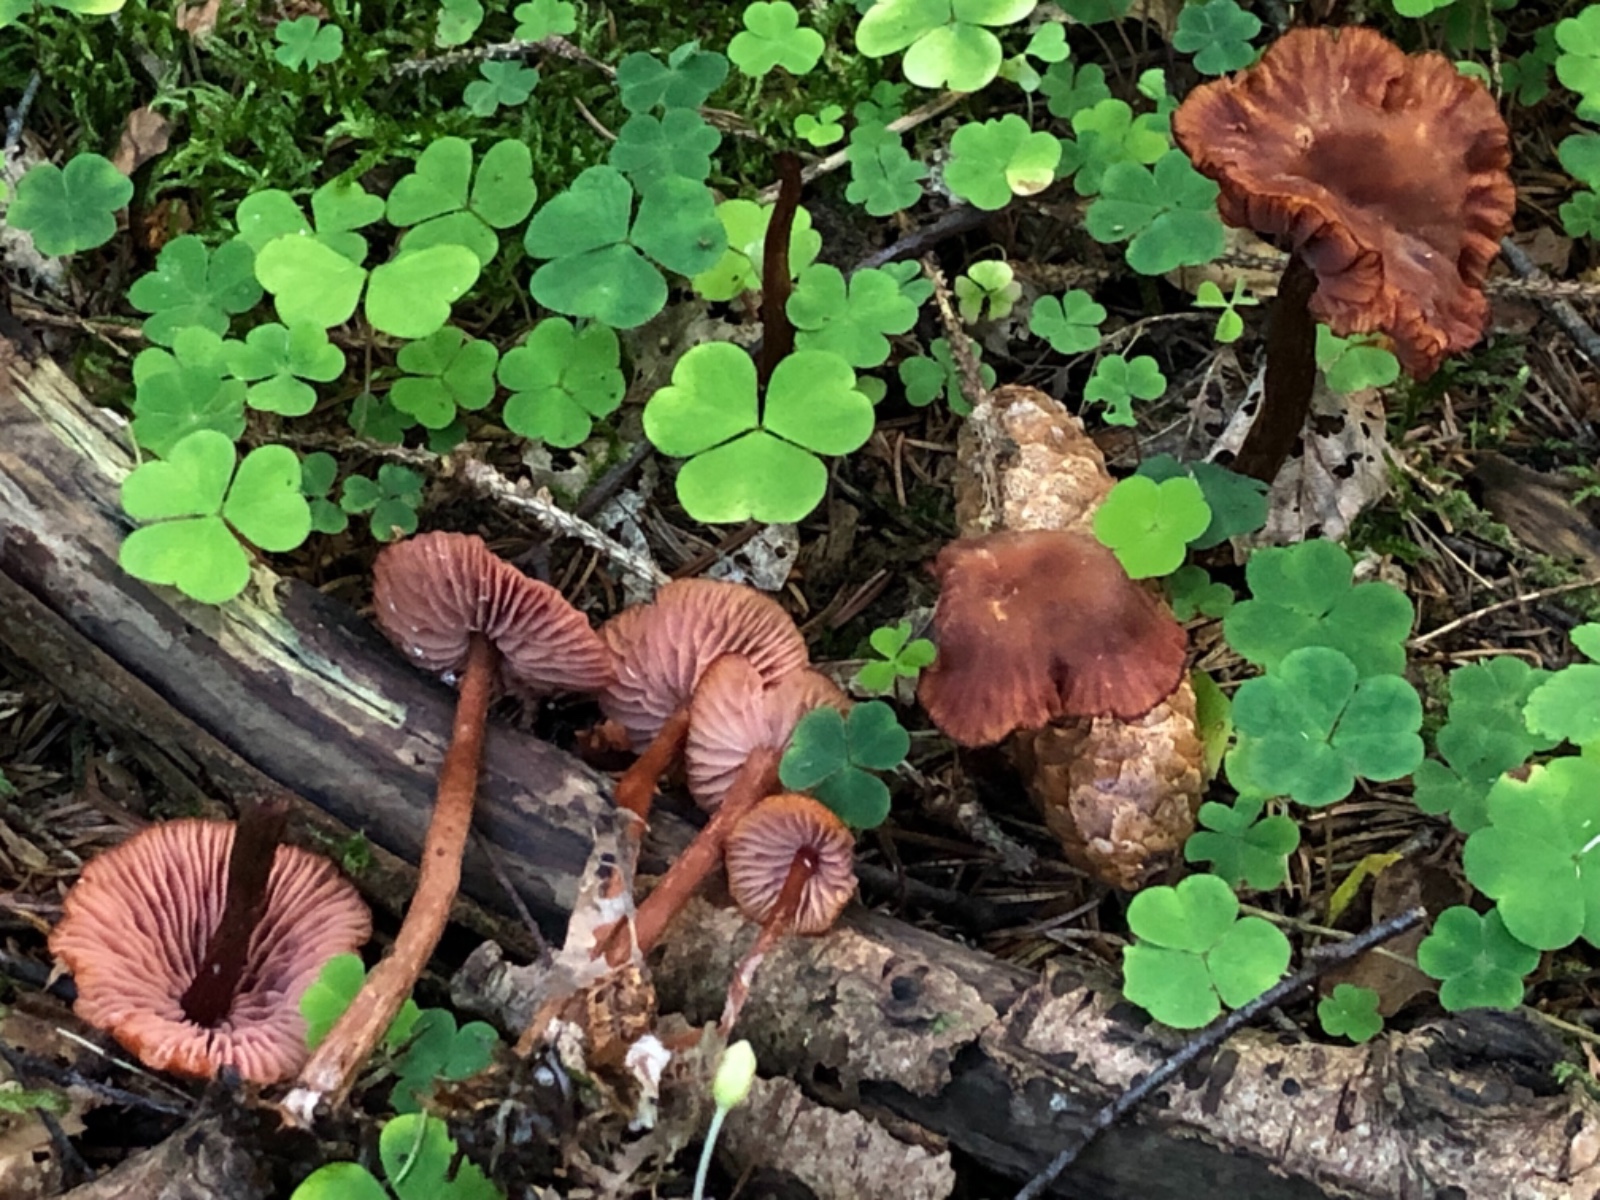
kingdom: Fungi
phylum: Basidiomycota
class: Agaricomycetes
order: Agaricales
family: Hydnangiaceae
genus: Laccaria
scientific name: Laccaria proxima
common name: stor ametysthat
